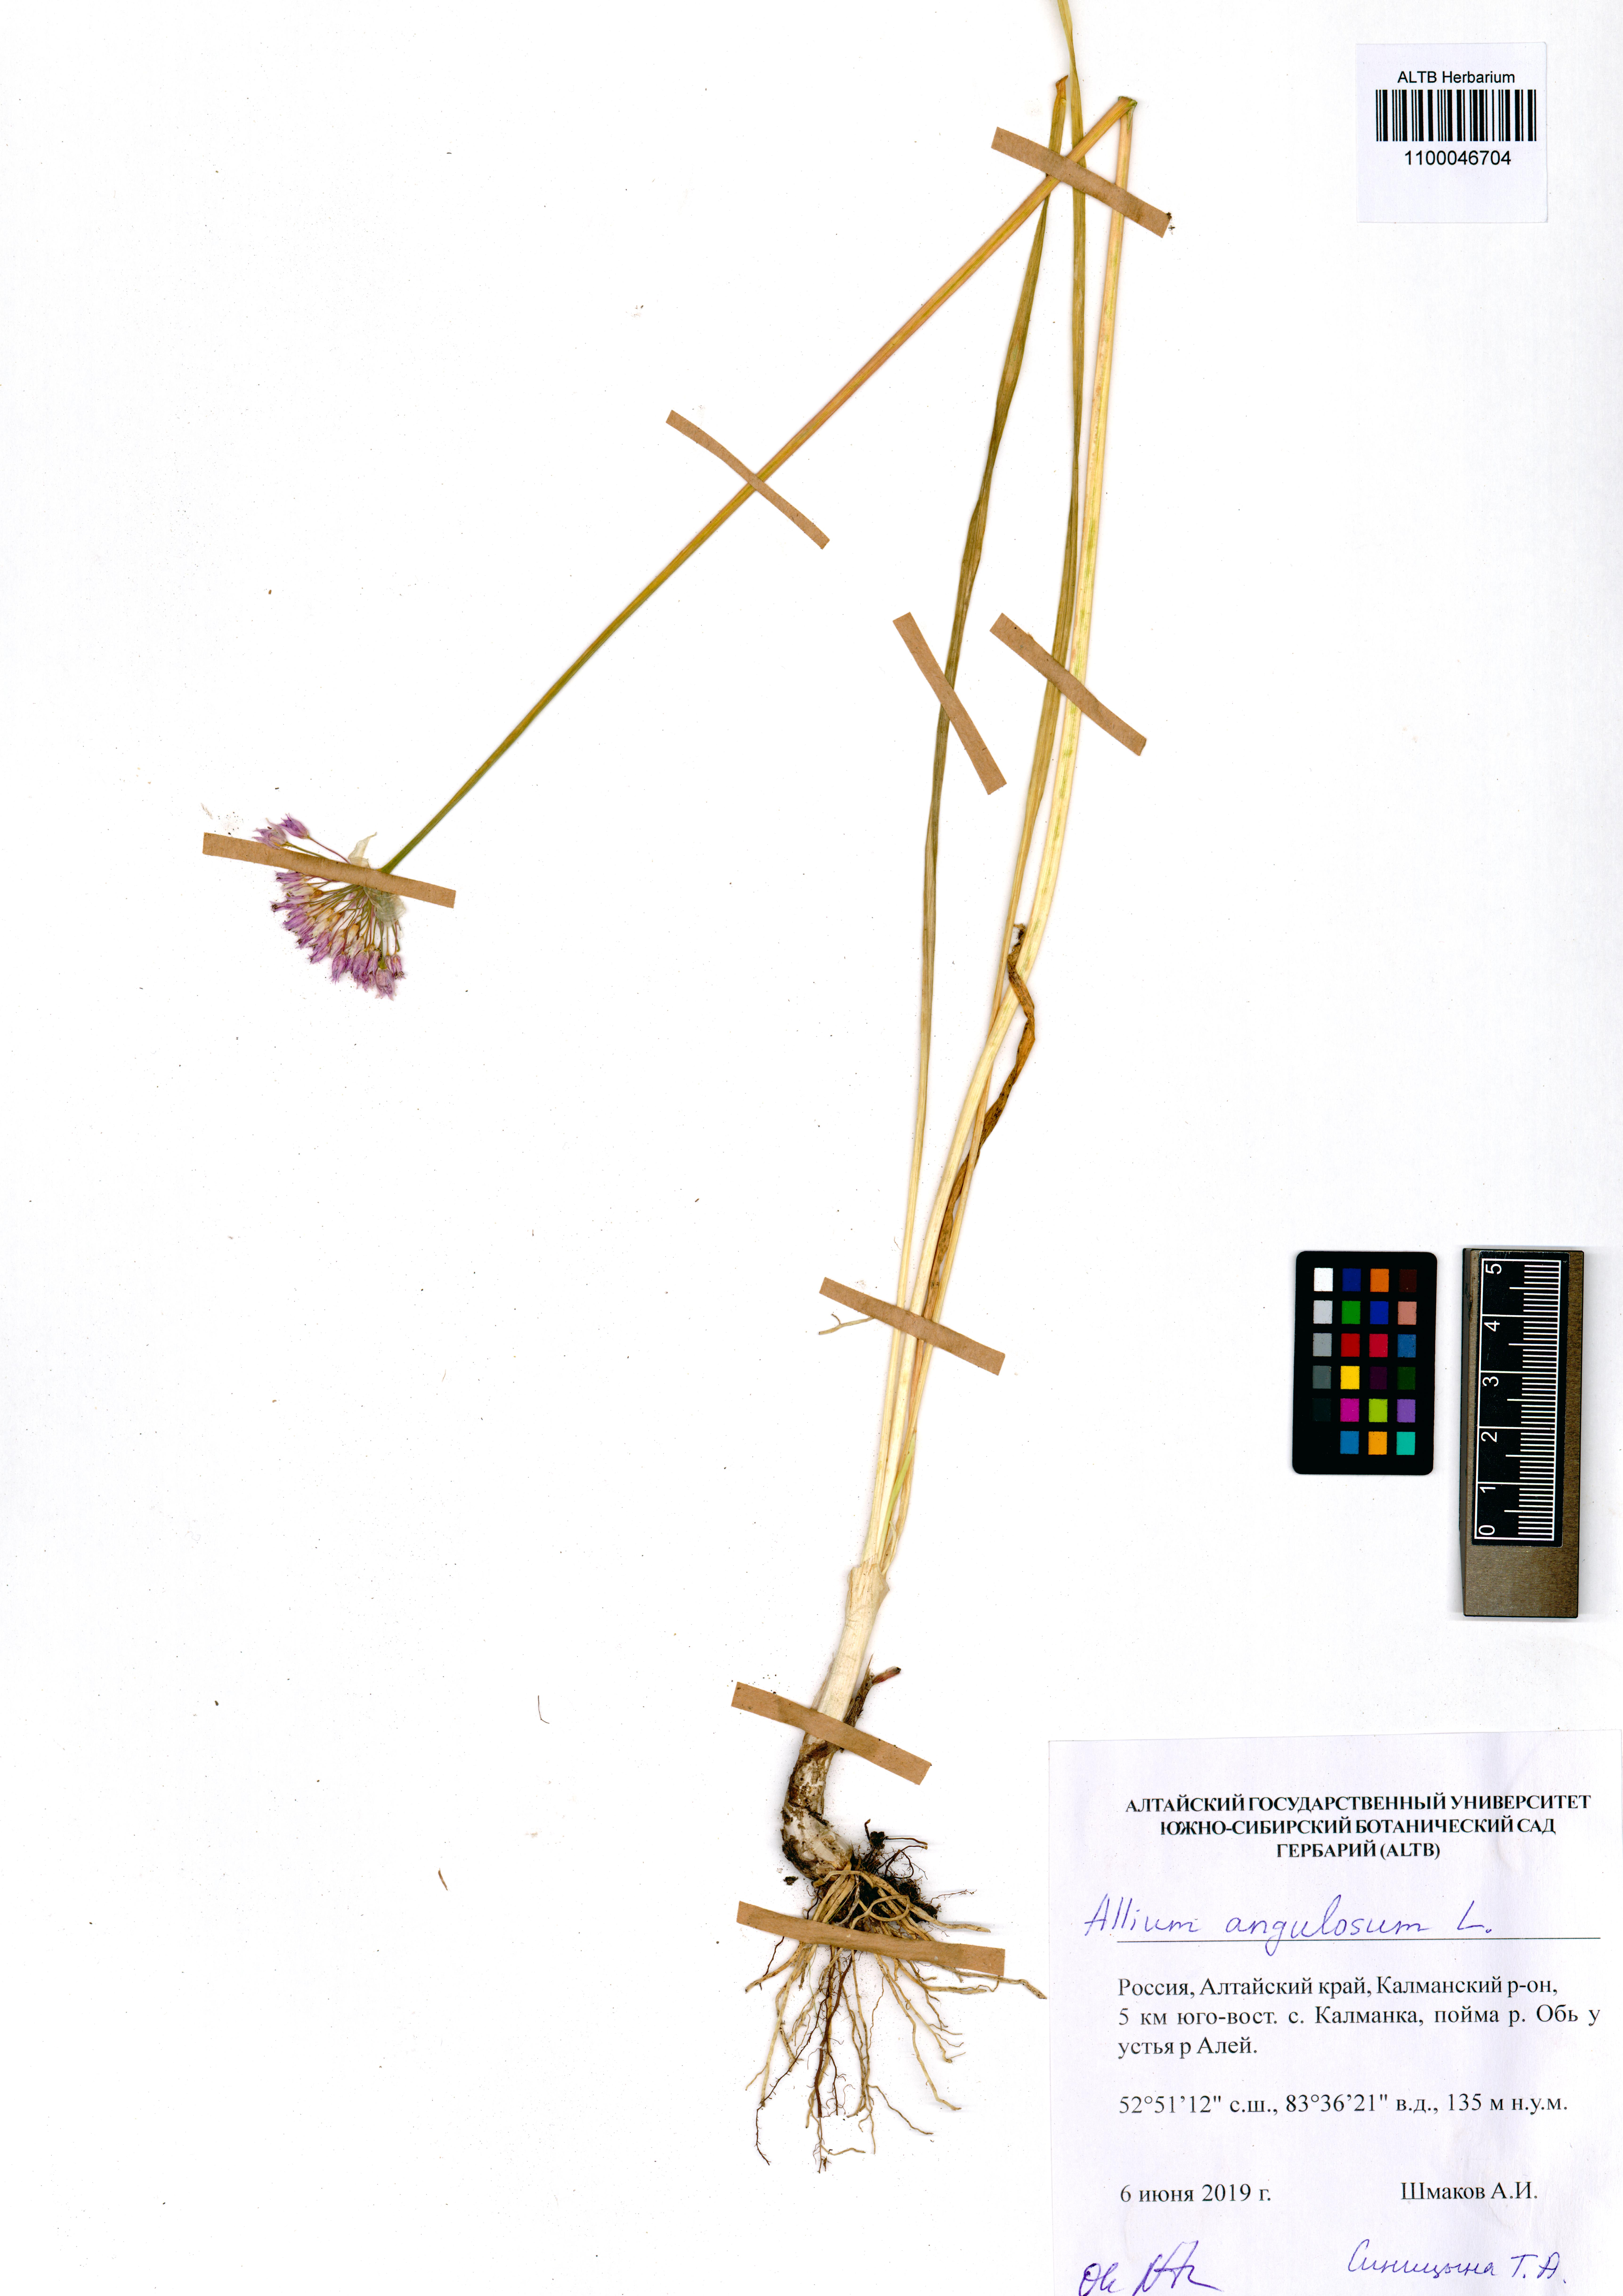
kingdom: Plantae
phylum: Tracheophyta
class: Liliopsida
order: Asparagales
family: Amaryllidaceae
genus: Allium
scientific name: Allium angulosum
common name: Mouse garlic
